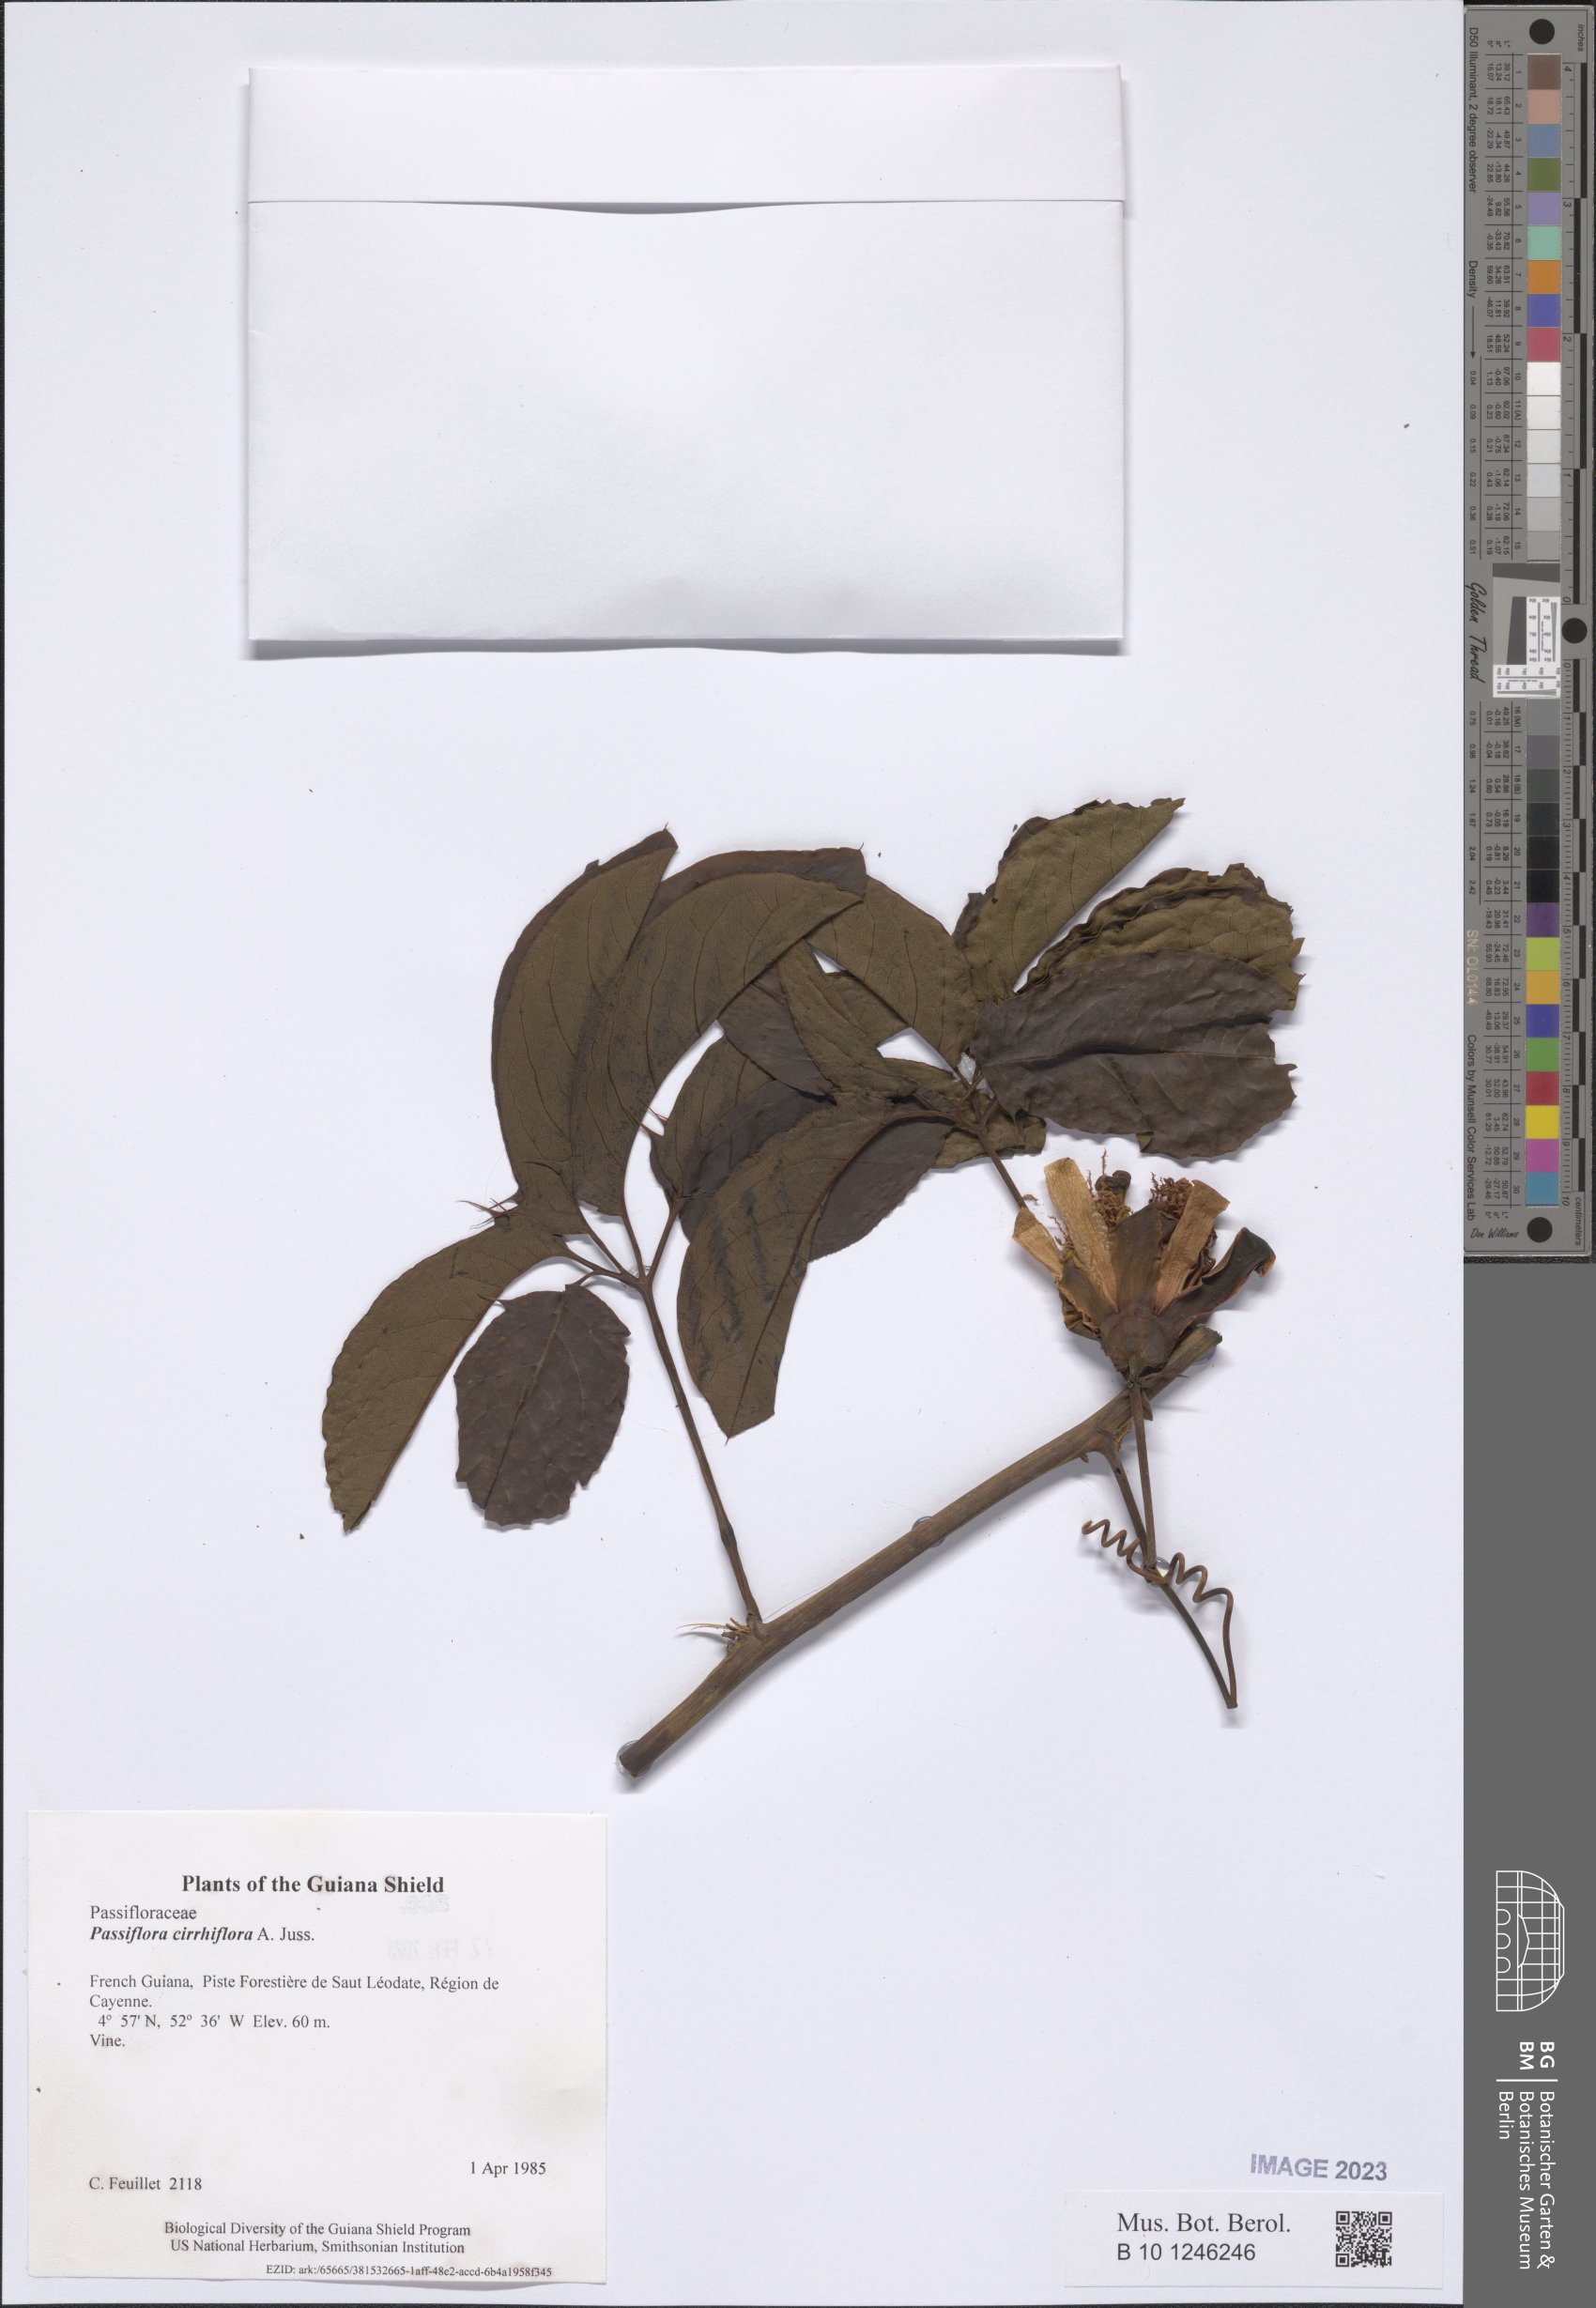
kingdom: Plantae
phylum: Tracheophyta
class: Magnoliopsida
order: Malpighiales
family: Passifloraceae
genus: Passiflora
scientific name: Passiflora cirrhiflora
